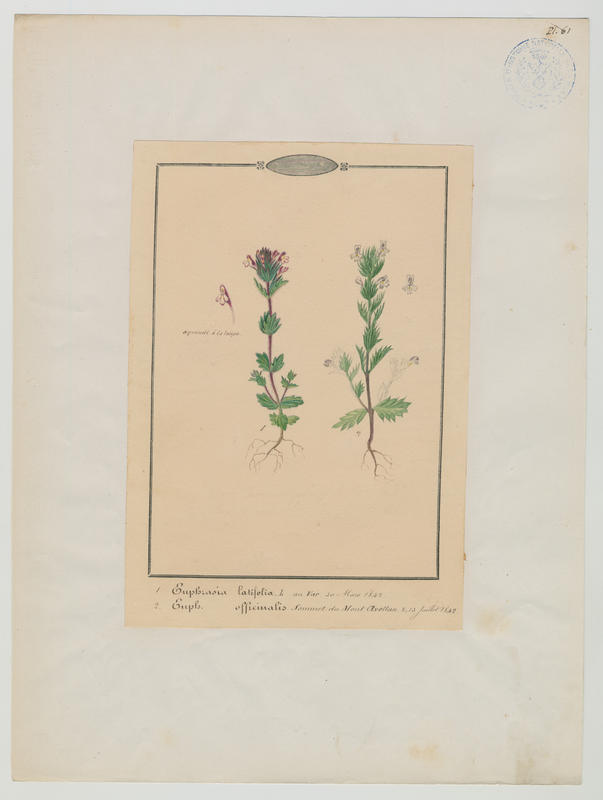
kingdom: Plantae
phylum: Tracheophyta
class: Magnoliopsida
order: Lamiales
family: Orobanchaceae
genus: Euphrasia
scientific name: Euphrasia officinalis
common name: Eyebright
